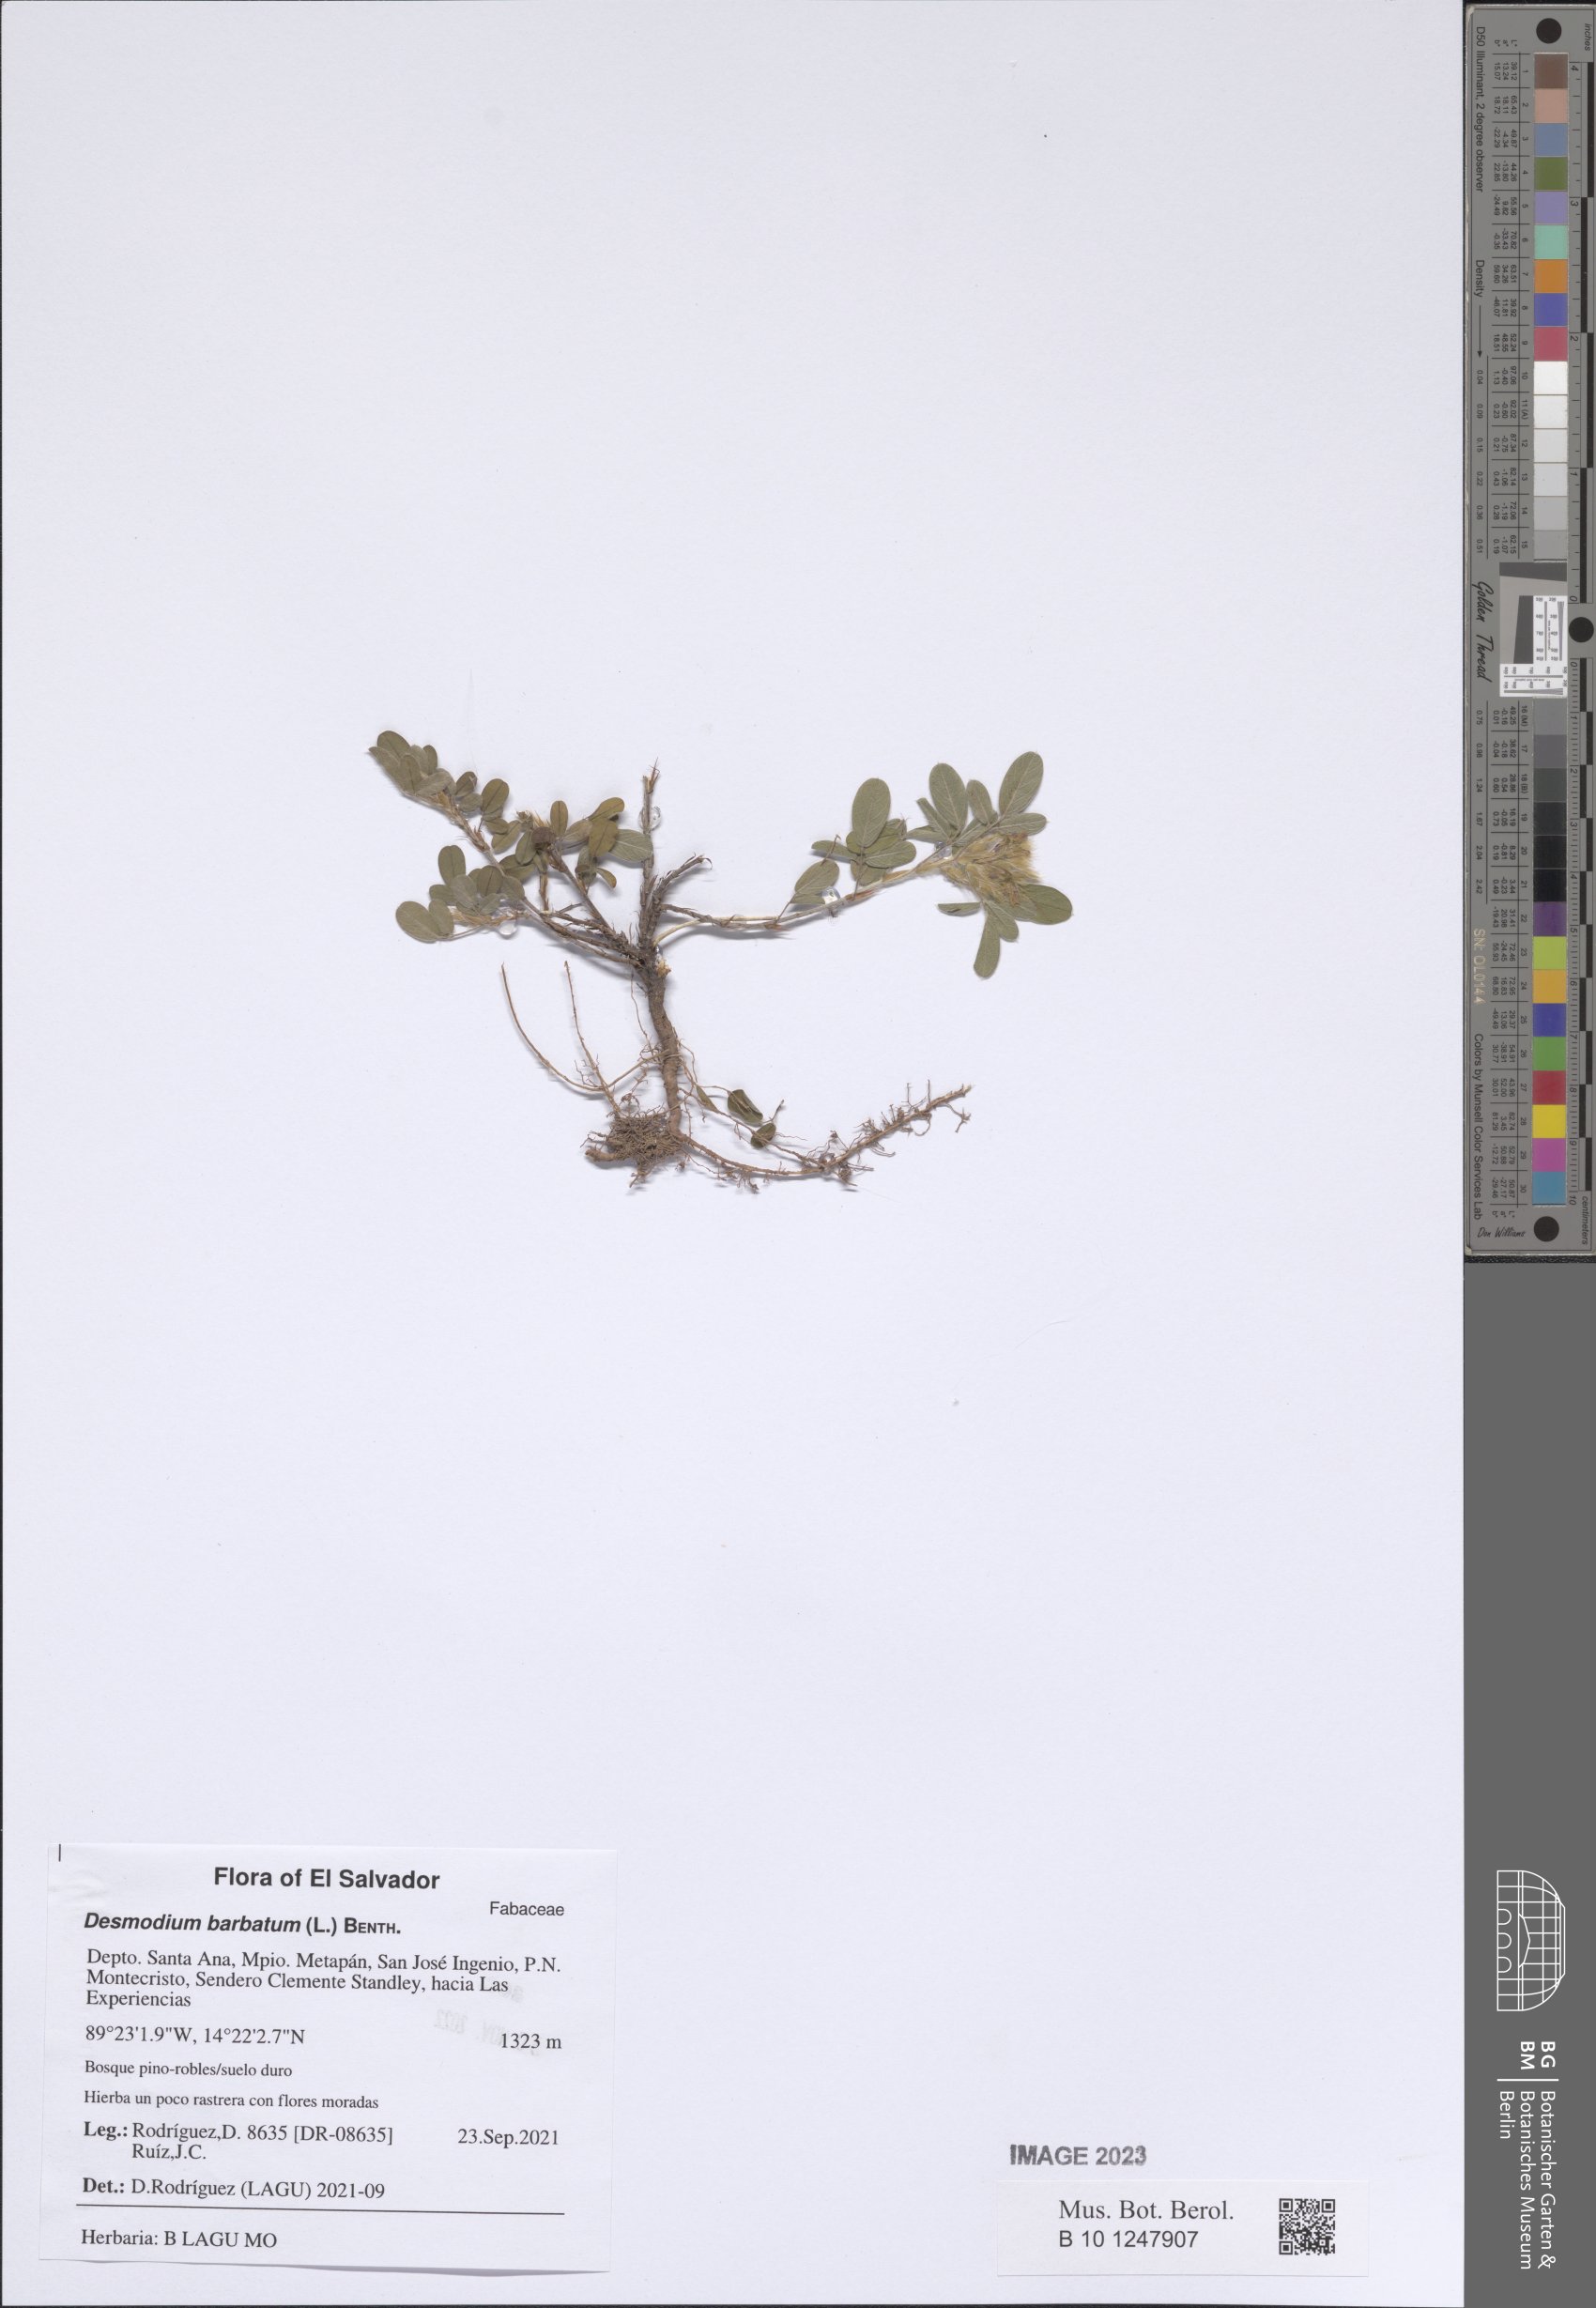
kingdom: Plantae
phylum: Tracheophyta
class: Magnoliopsida
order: Fabales
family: Fabaceae
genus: Grona
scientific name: Grona barbata
